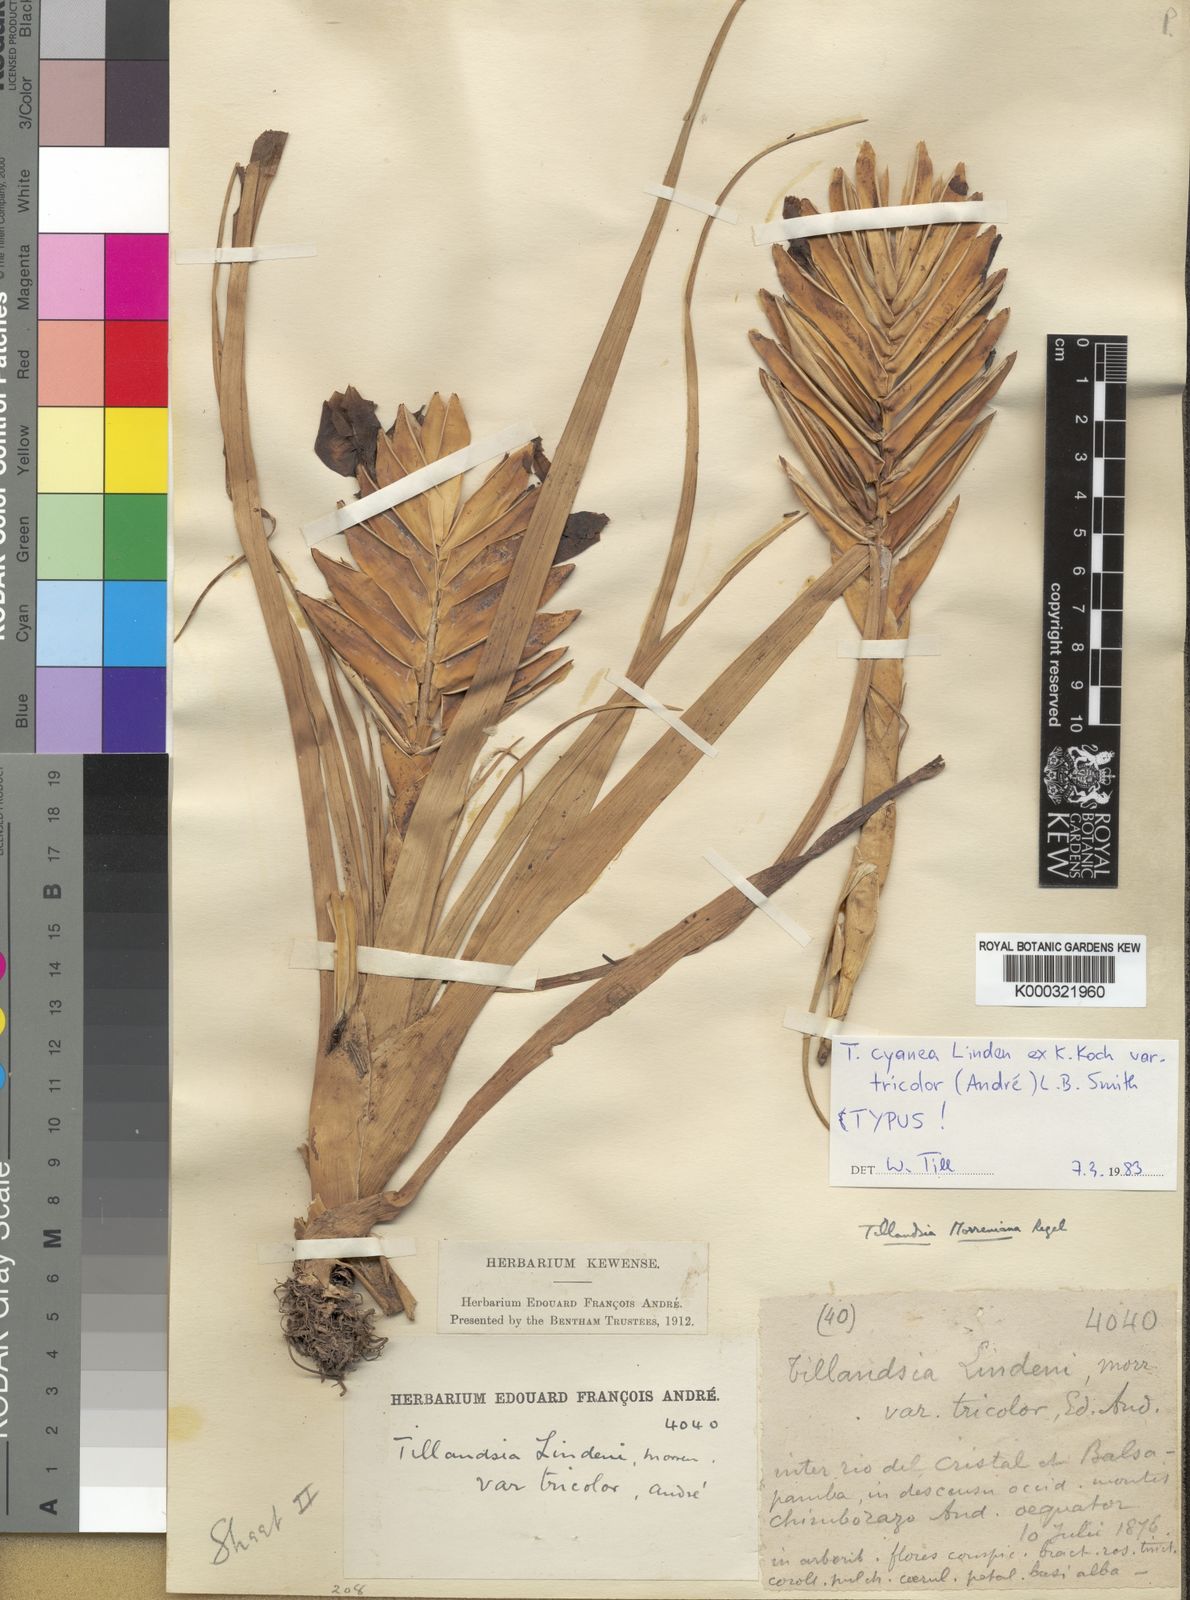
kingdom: Plantae
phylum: Tracheophyta
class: Liliopsida
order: Poales
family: Bromeliaceae
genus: Tillandsia
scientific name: Tillandsia
